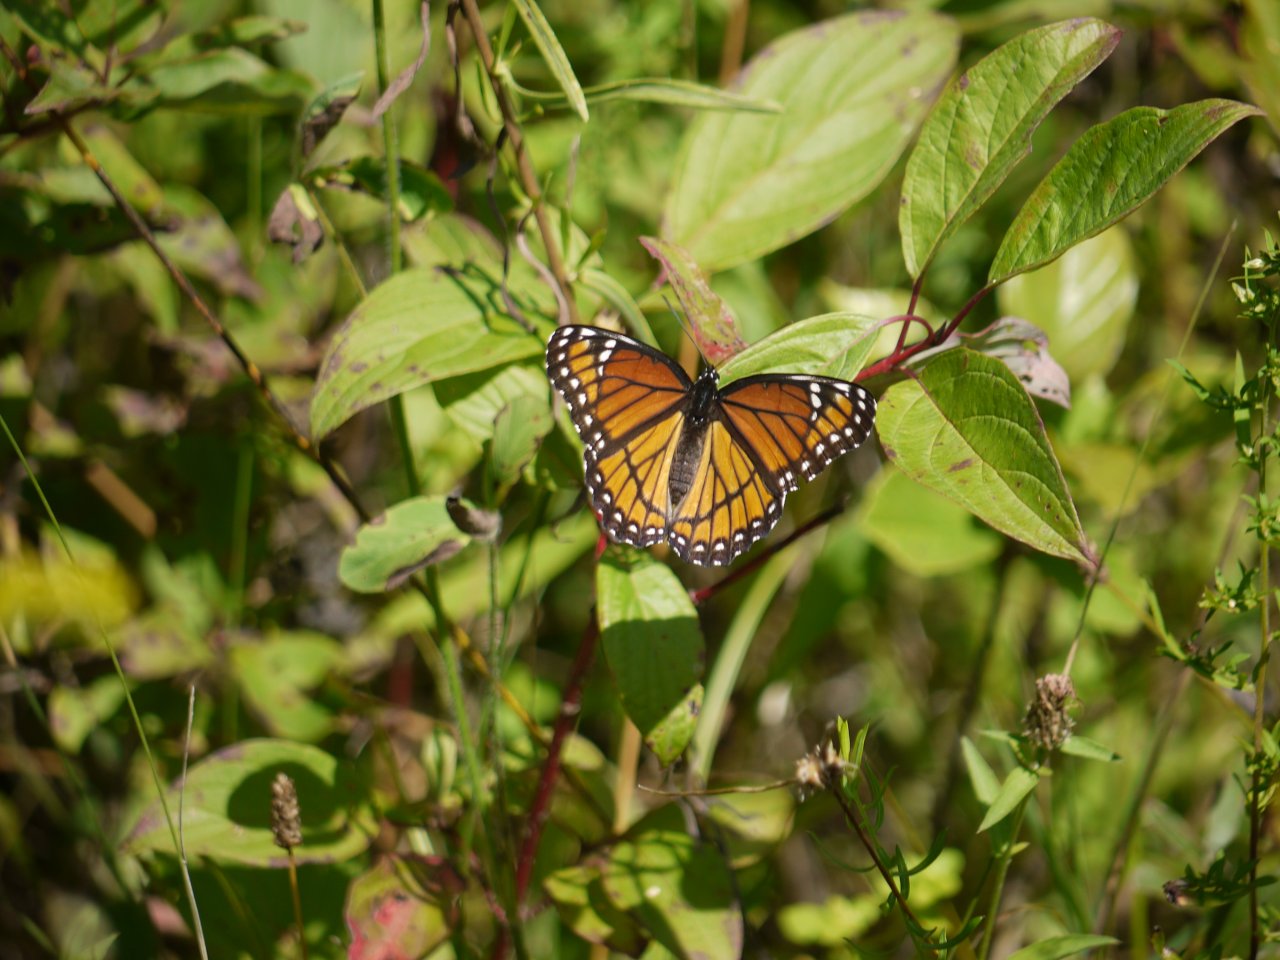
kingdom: Animalia
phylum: Arthropoda
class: Insecta
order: Lepidoptera
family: Nymphalidae
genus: Limenitis
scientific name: Limenitis archippus
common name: Viceroy
